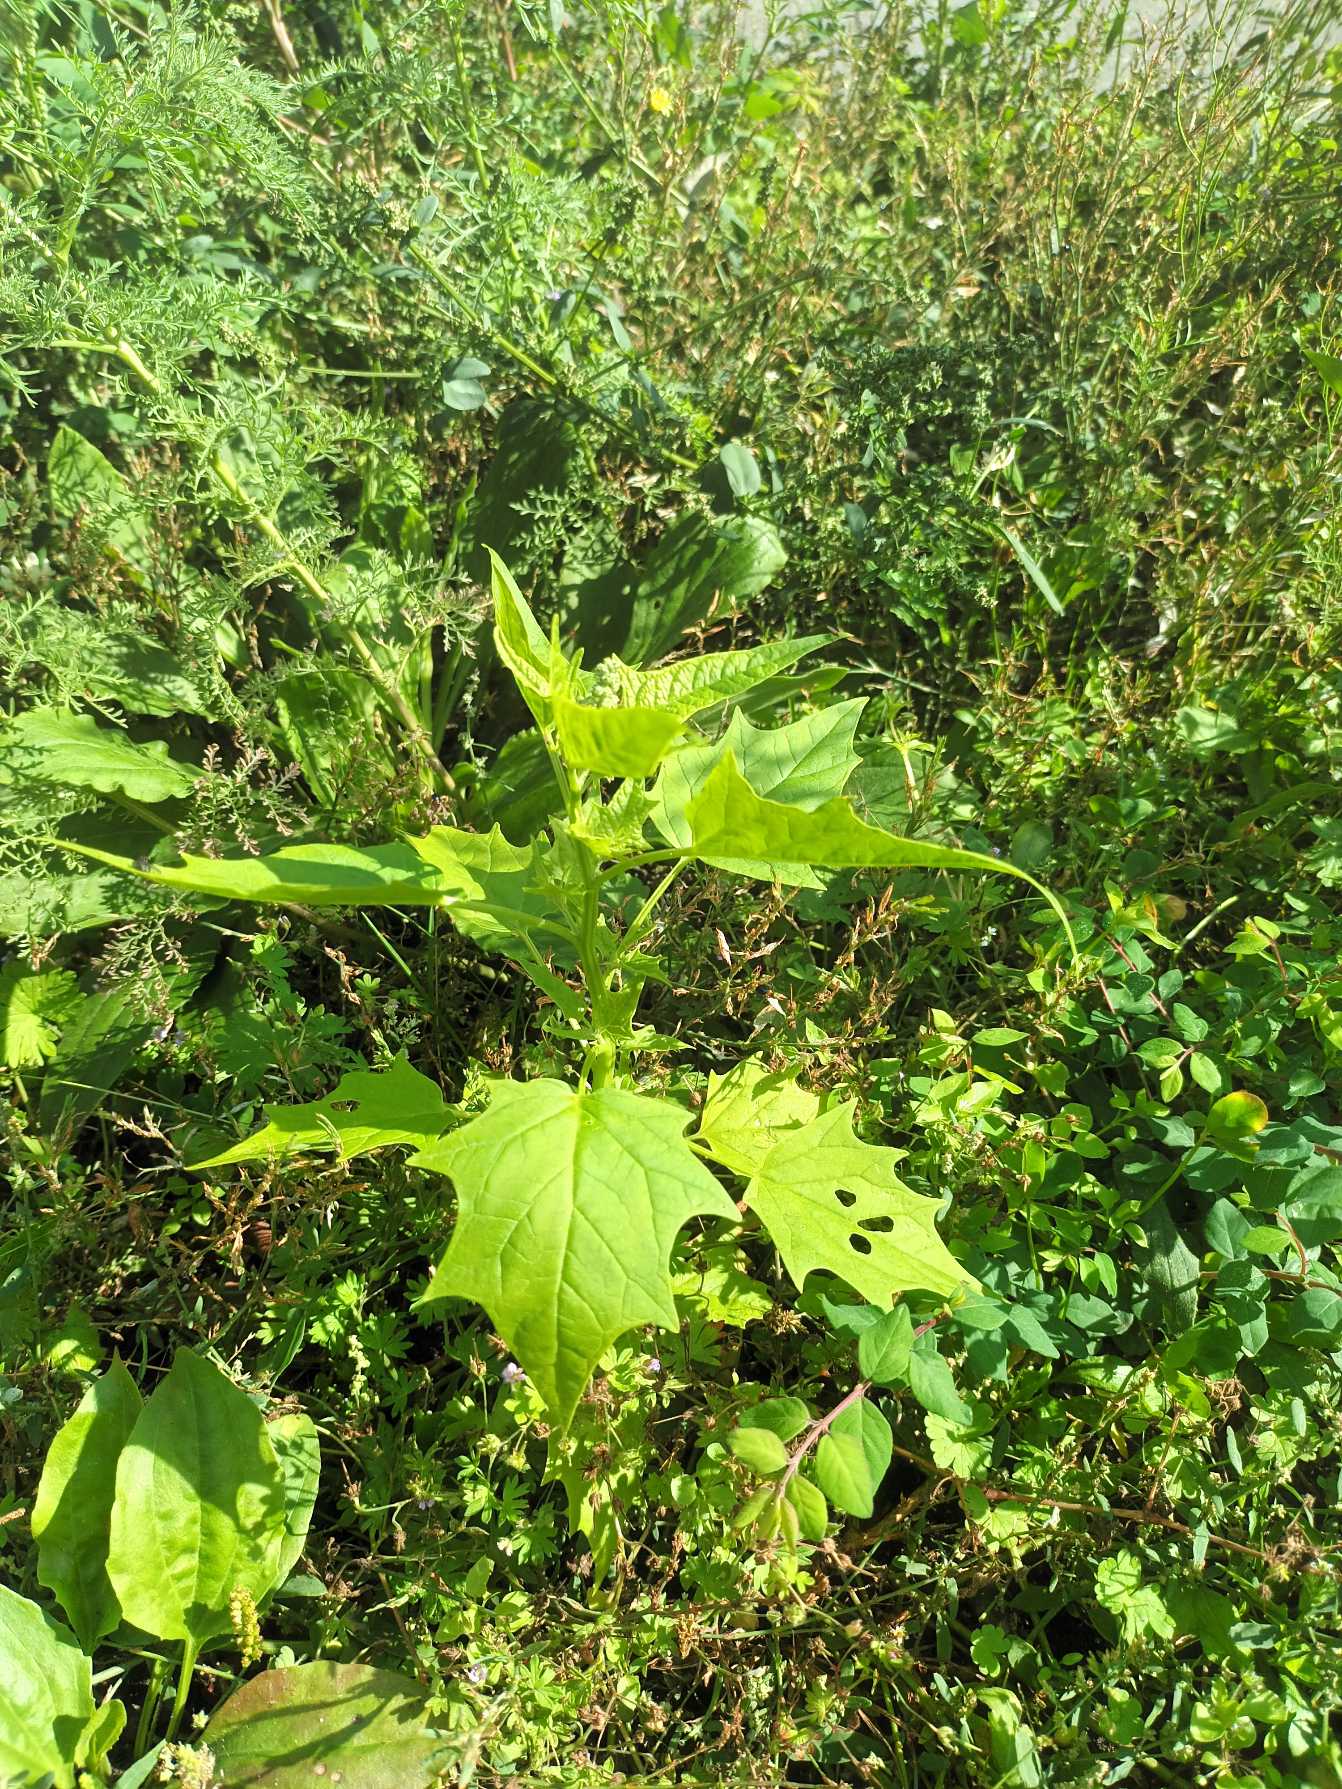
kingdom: Plantae
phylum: Tracheophyta
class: Magnoliopsida
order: Caryophyllales
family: Amaranthaceae
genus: Chenopodiastrum
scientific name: Chenopodiastrum hybridum
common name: Hjertebladet gåsefod
